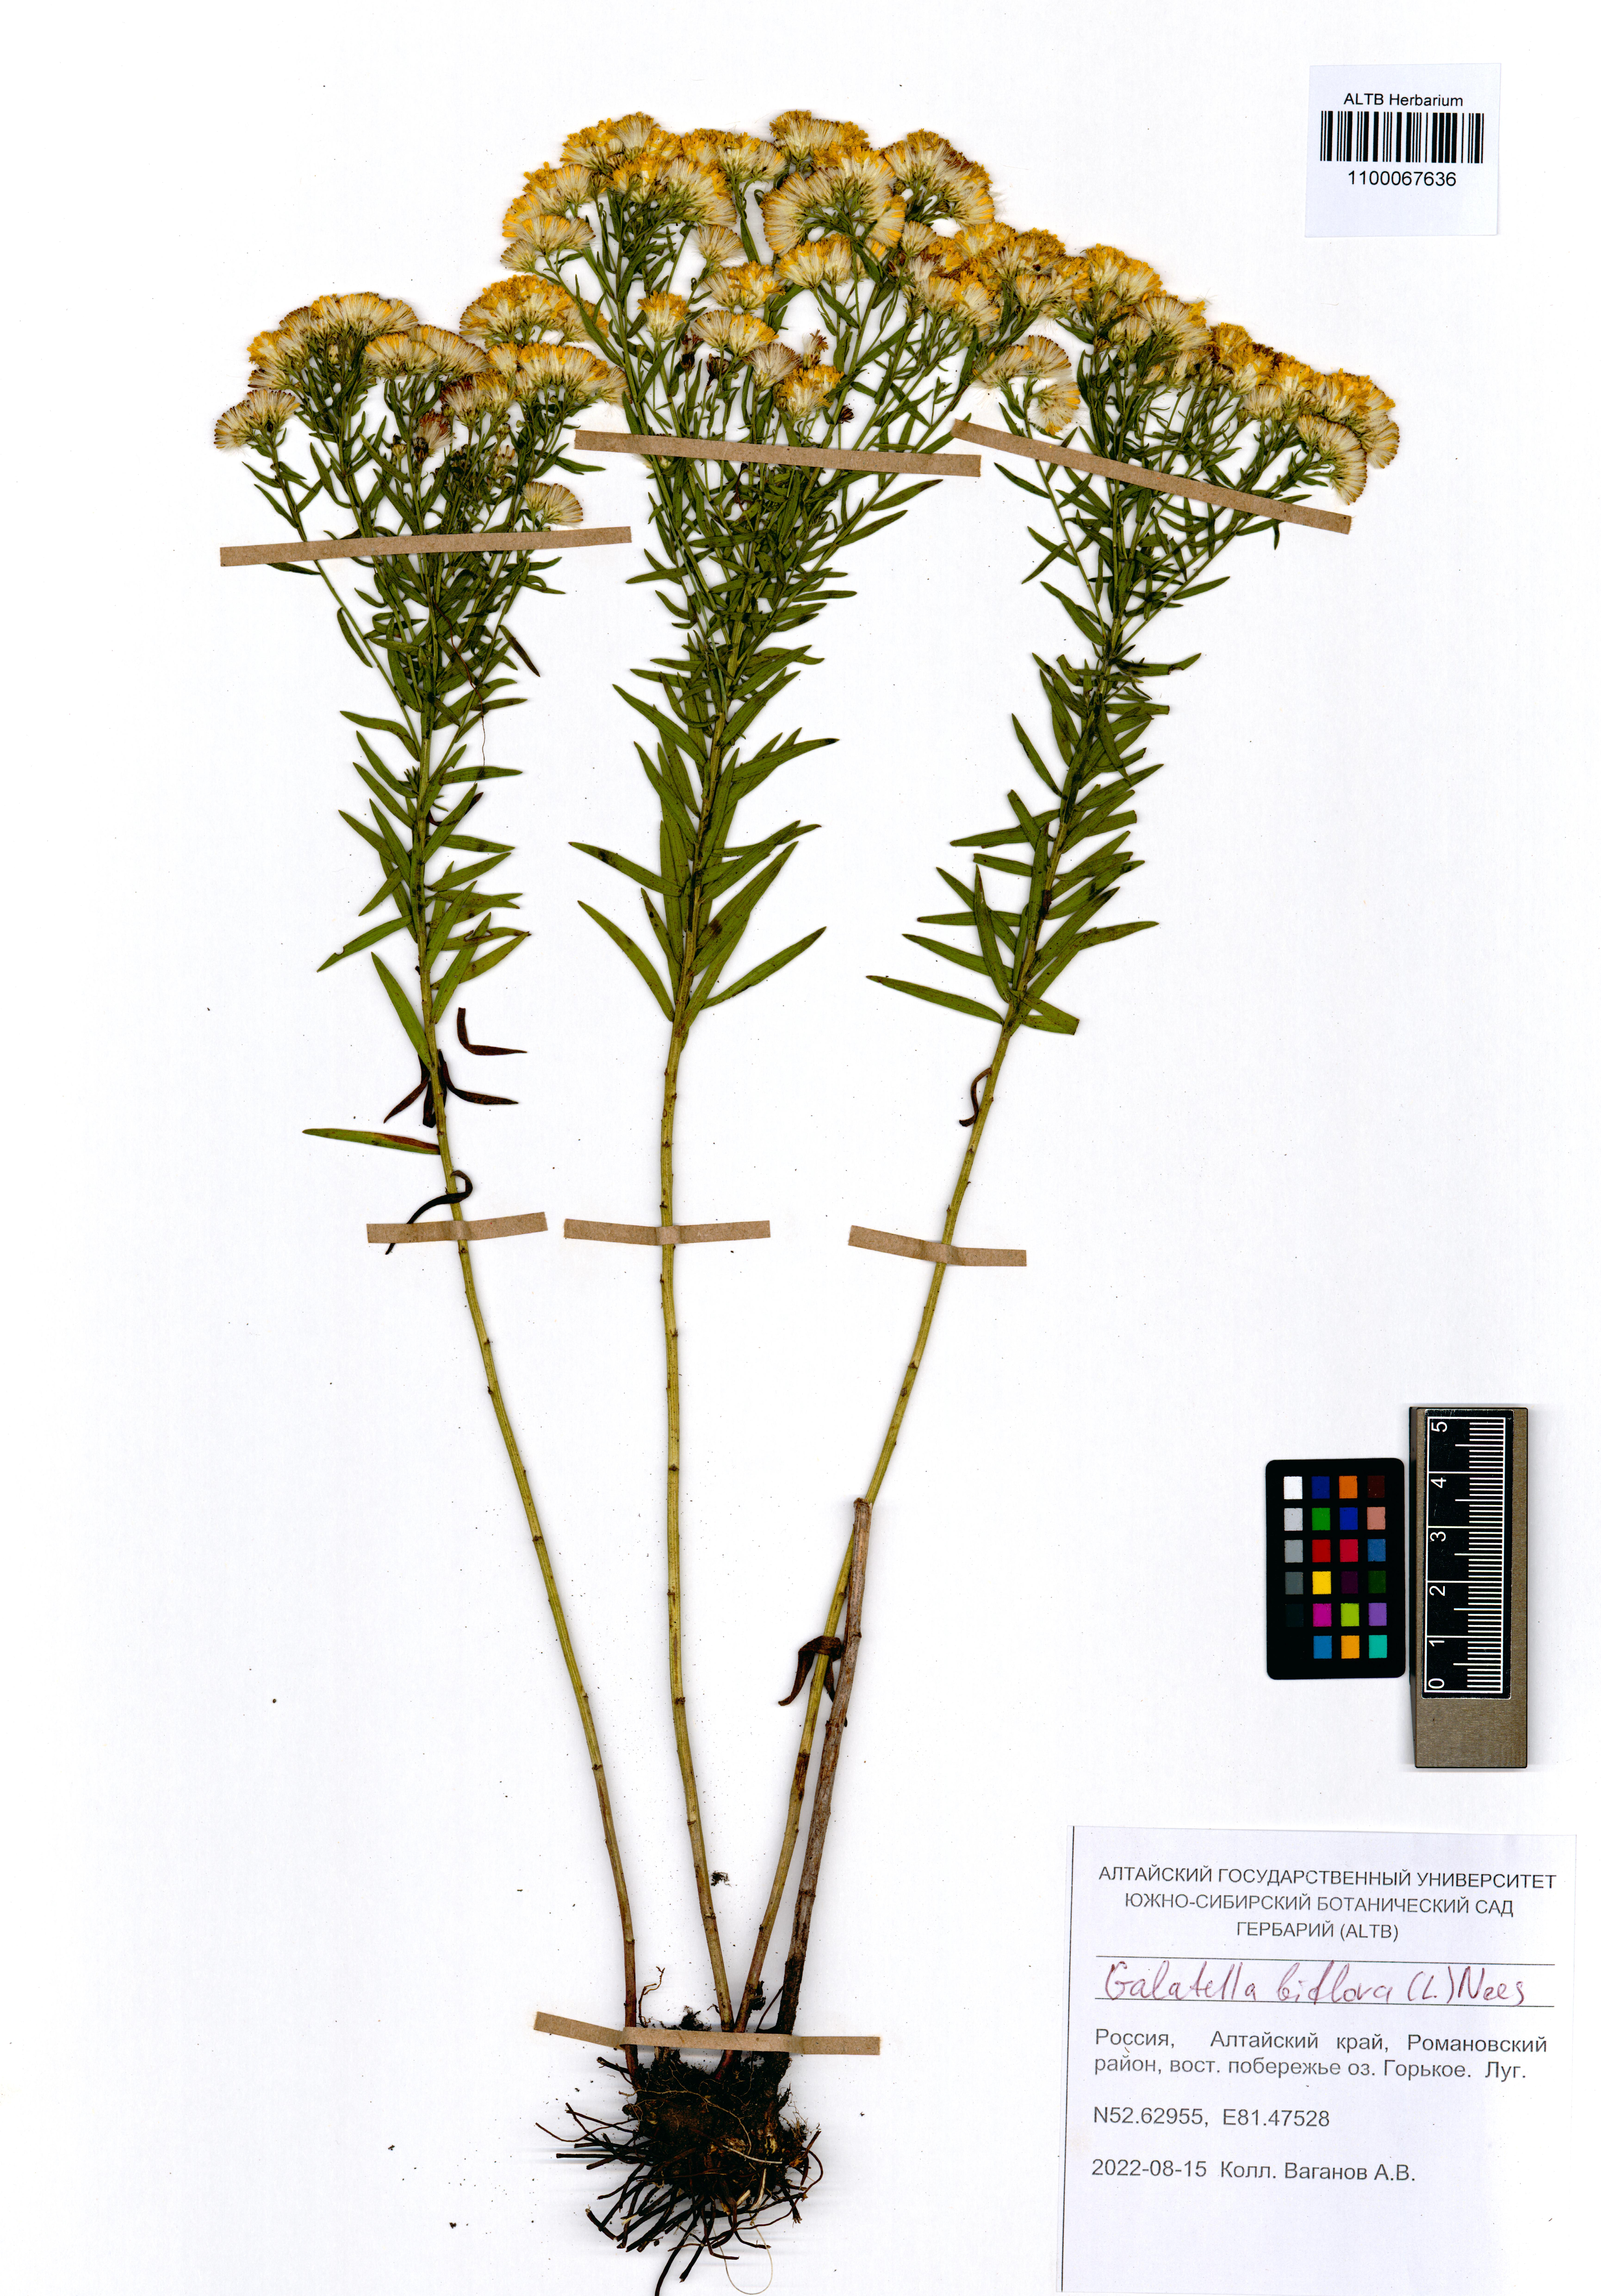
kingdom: Plantae
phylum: Tracheophyta
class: Magnoliopsida
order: Asterales
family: Asteraceae
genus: Galatella
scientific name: Galatella biflora
